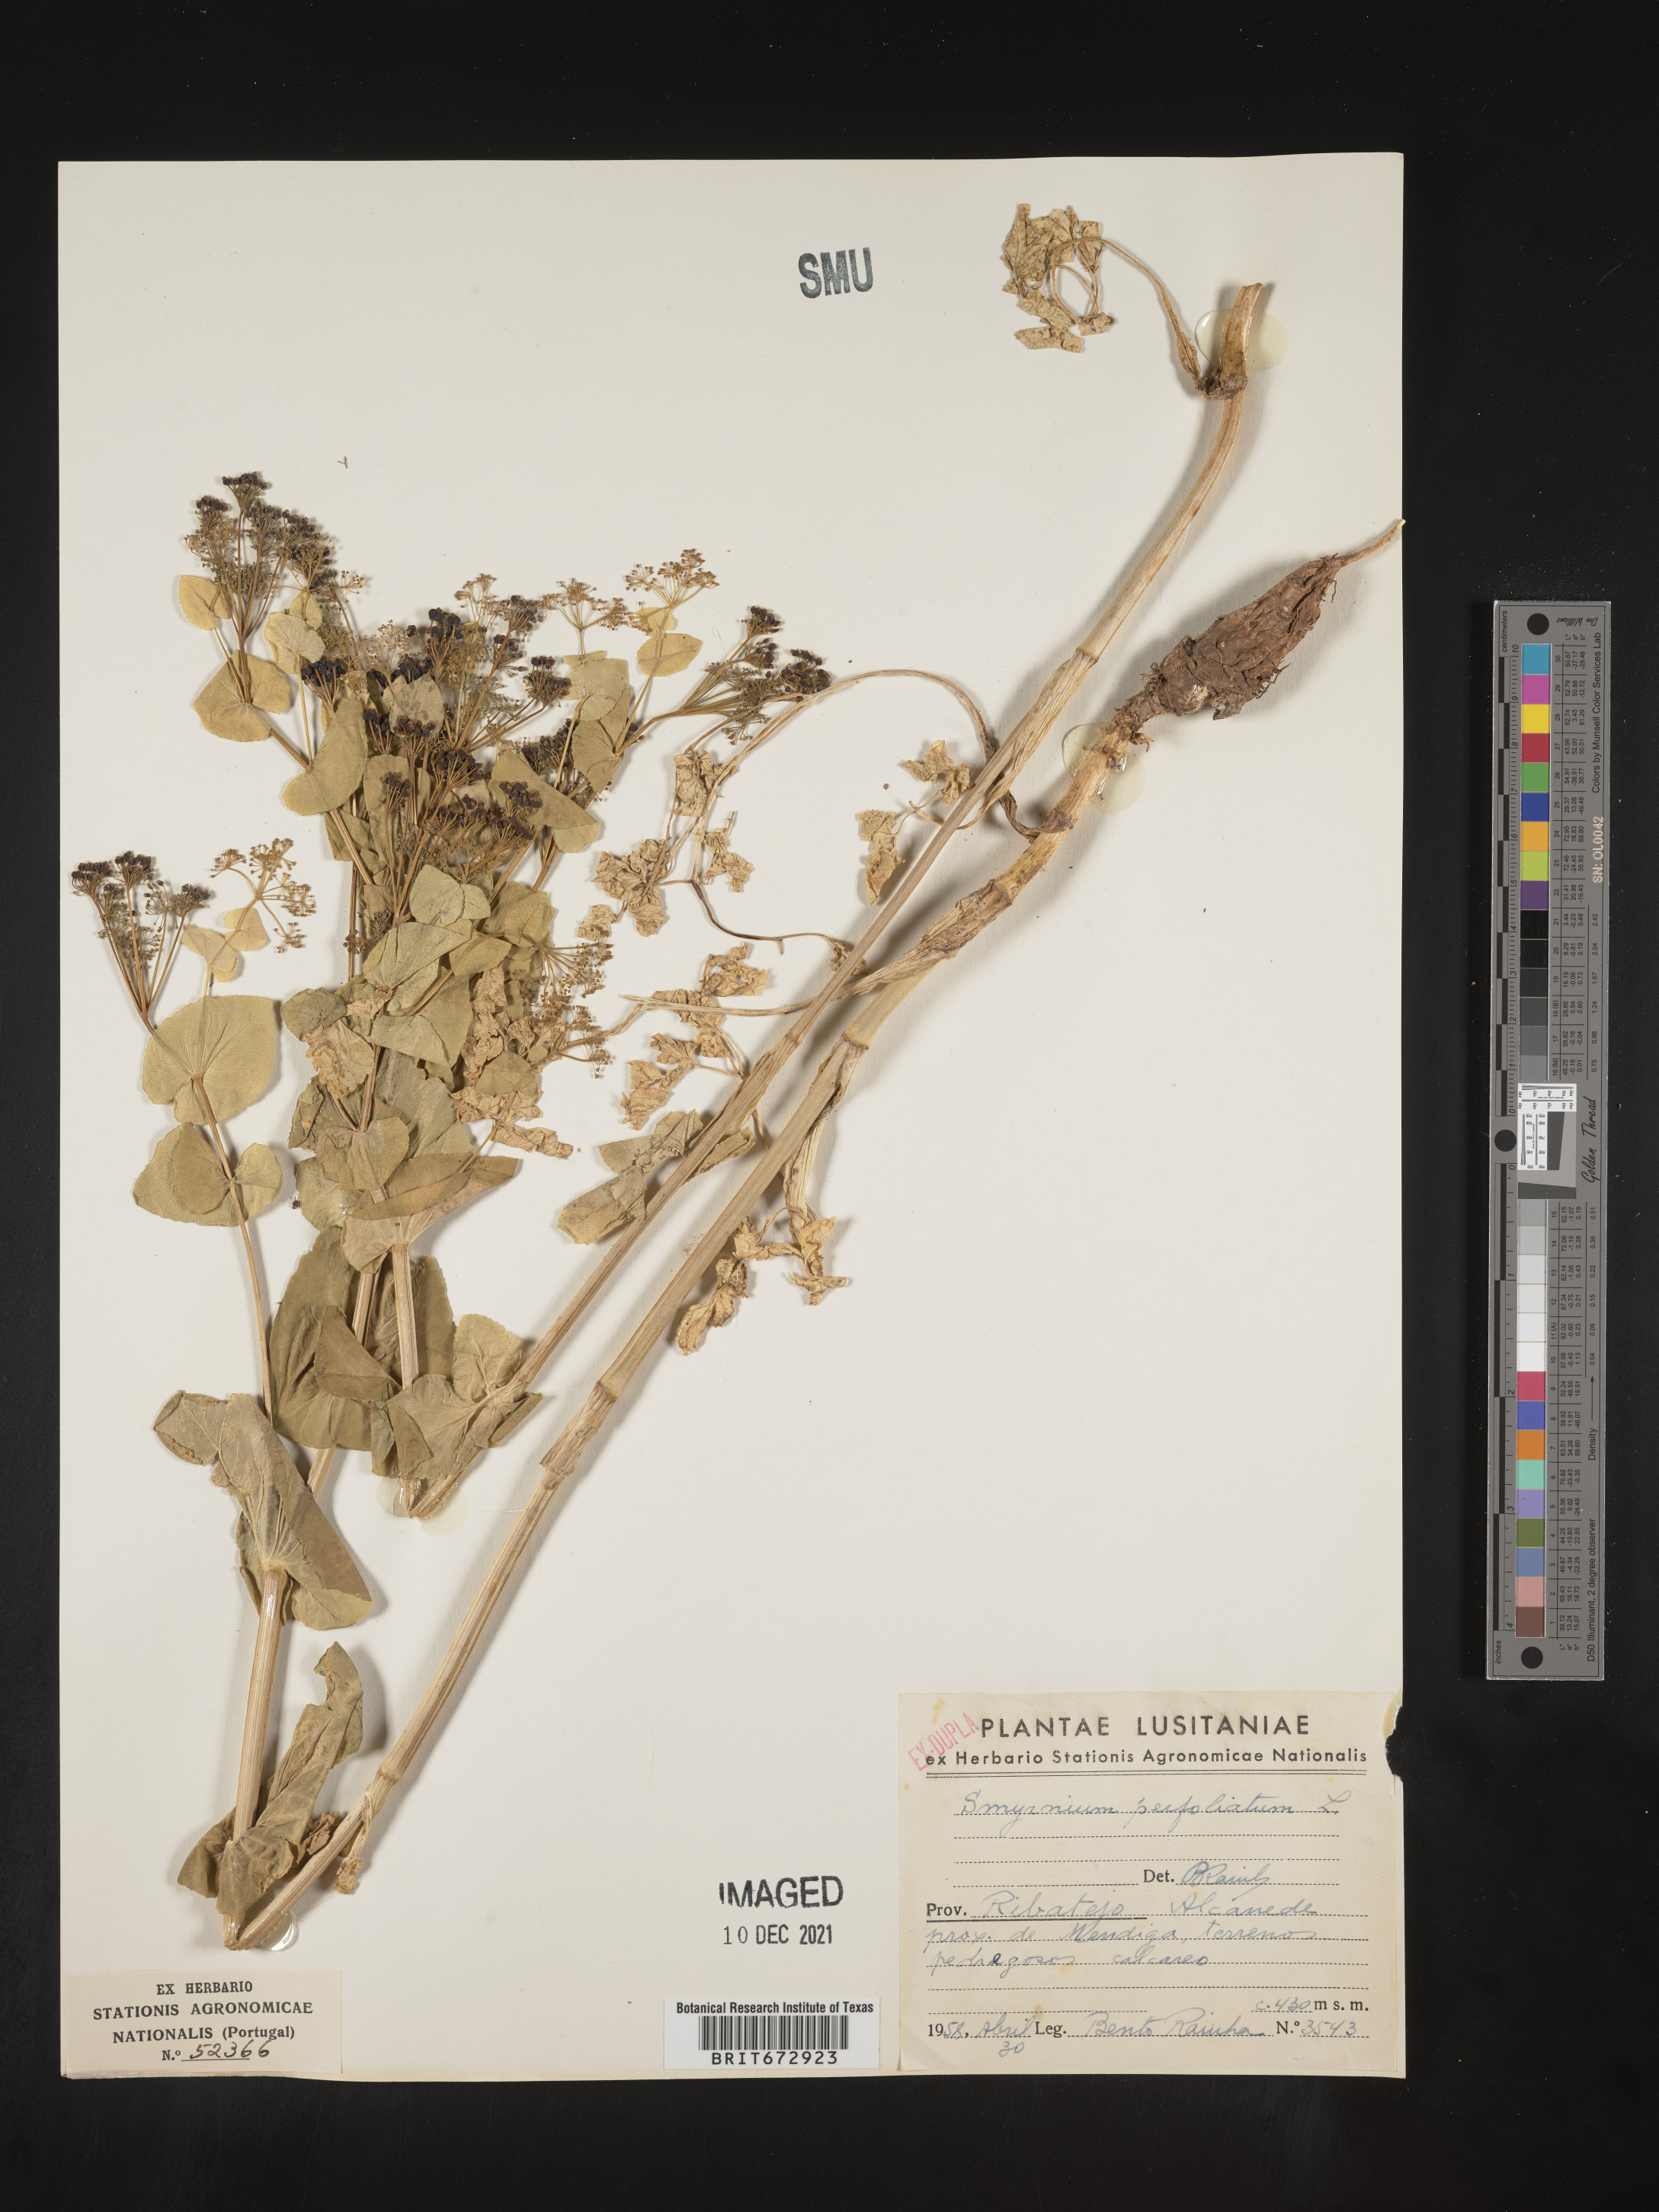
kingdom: Plantae
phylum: Tracheophyta
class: Magnoliopsida
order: Apiales
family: Apiaceae
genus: Smyrnium
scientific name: Smyrnium
